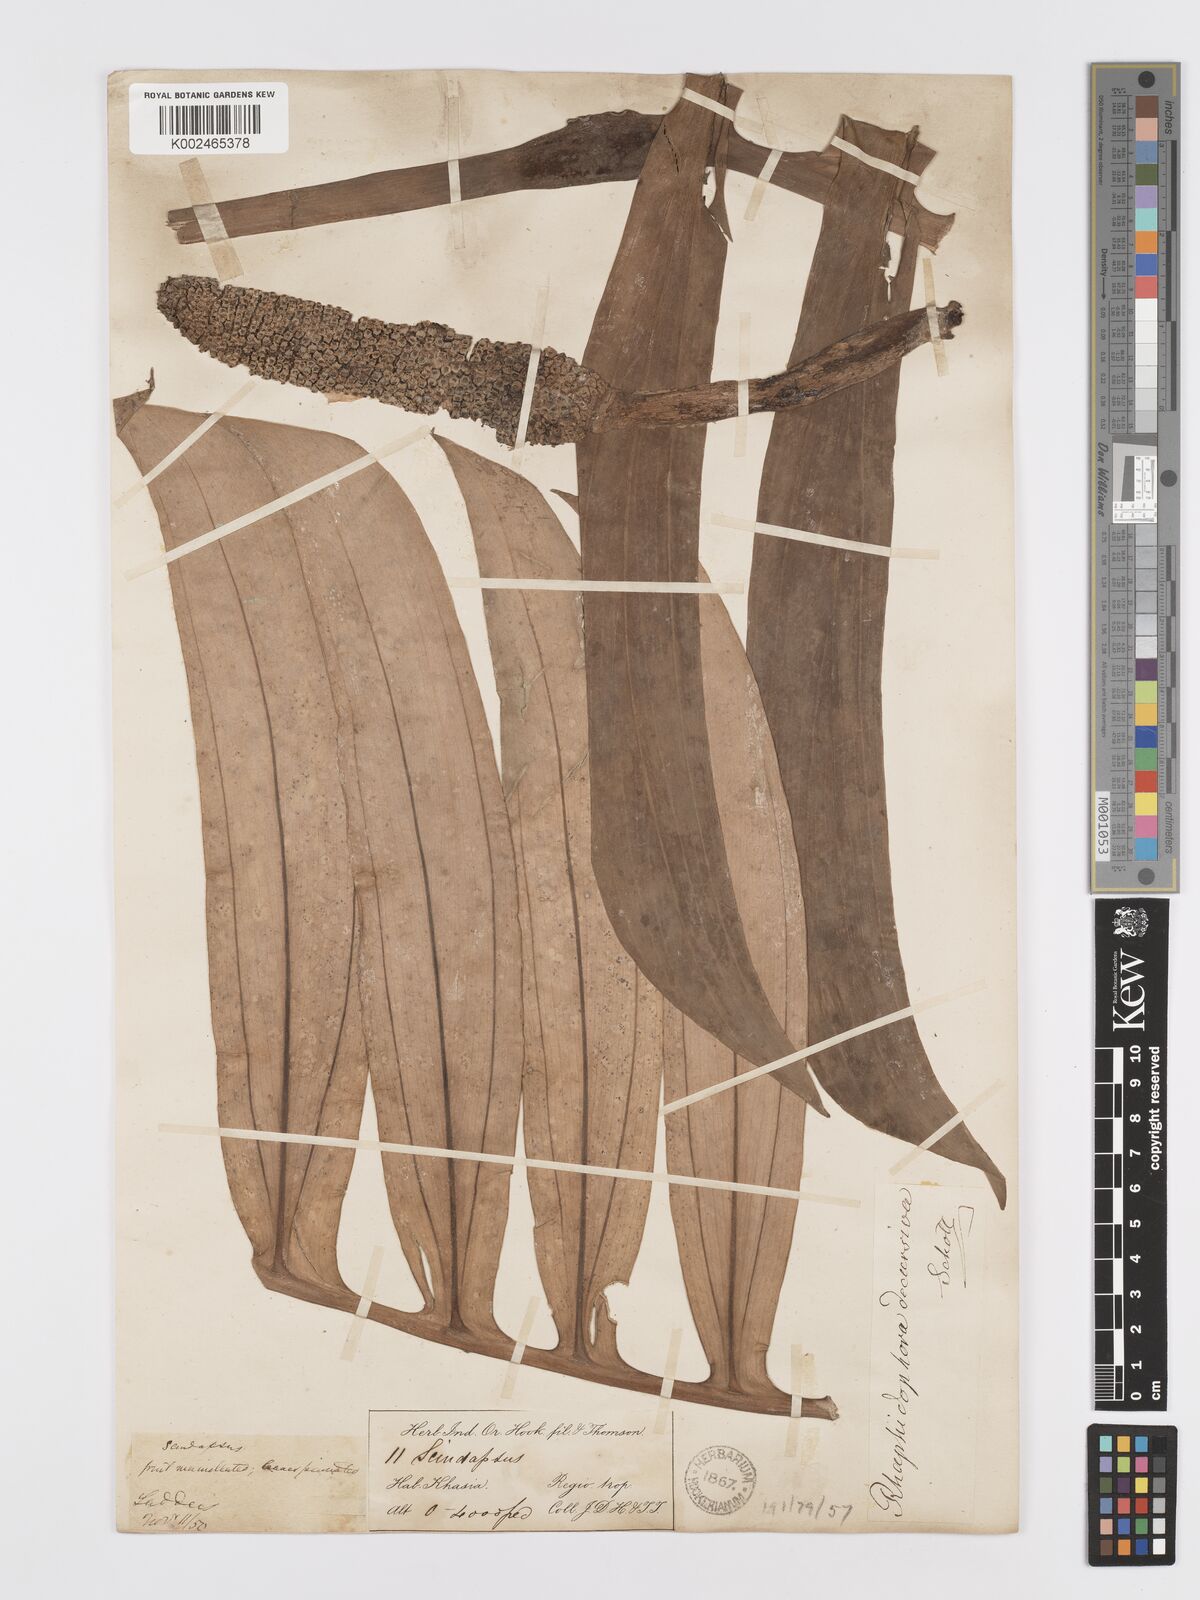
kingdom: Plantae
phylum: Tracheophyta
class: Liliopsida
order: Alismatales
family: Araceae
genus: Rhaphidophora
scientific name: Rhaphidophora decursiva
